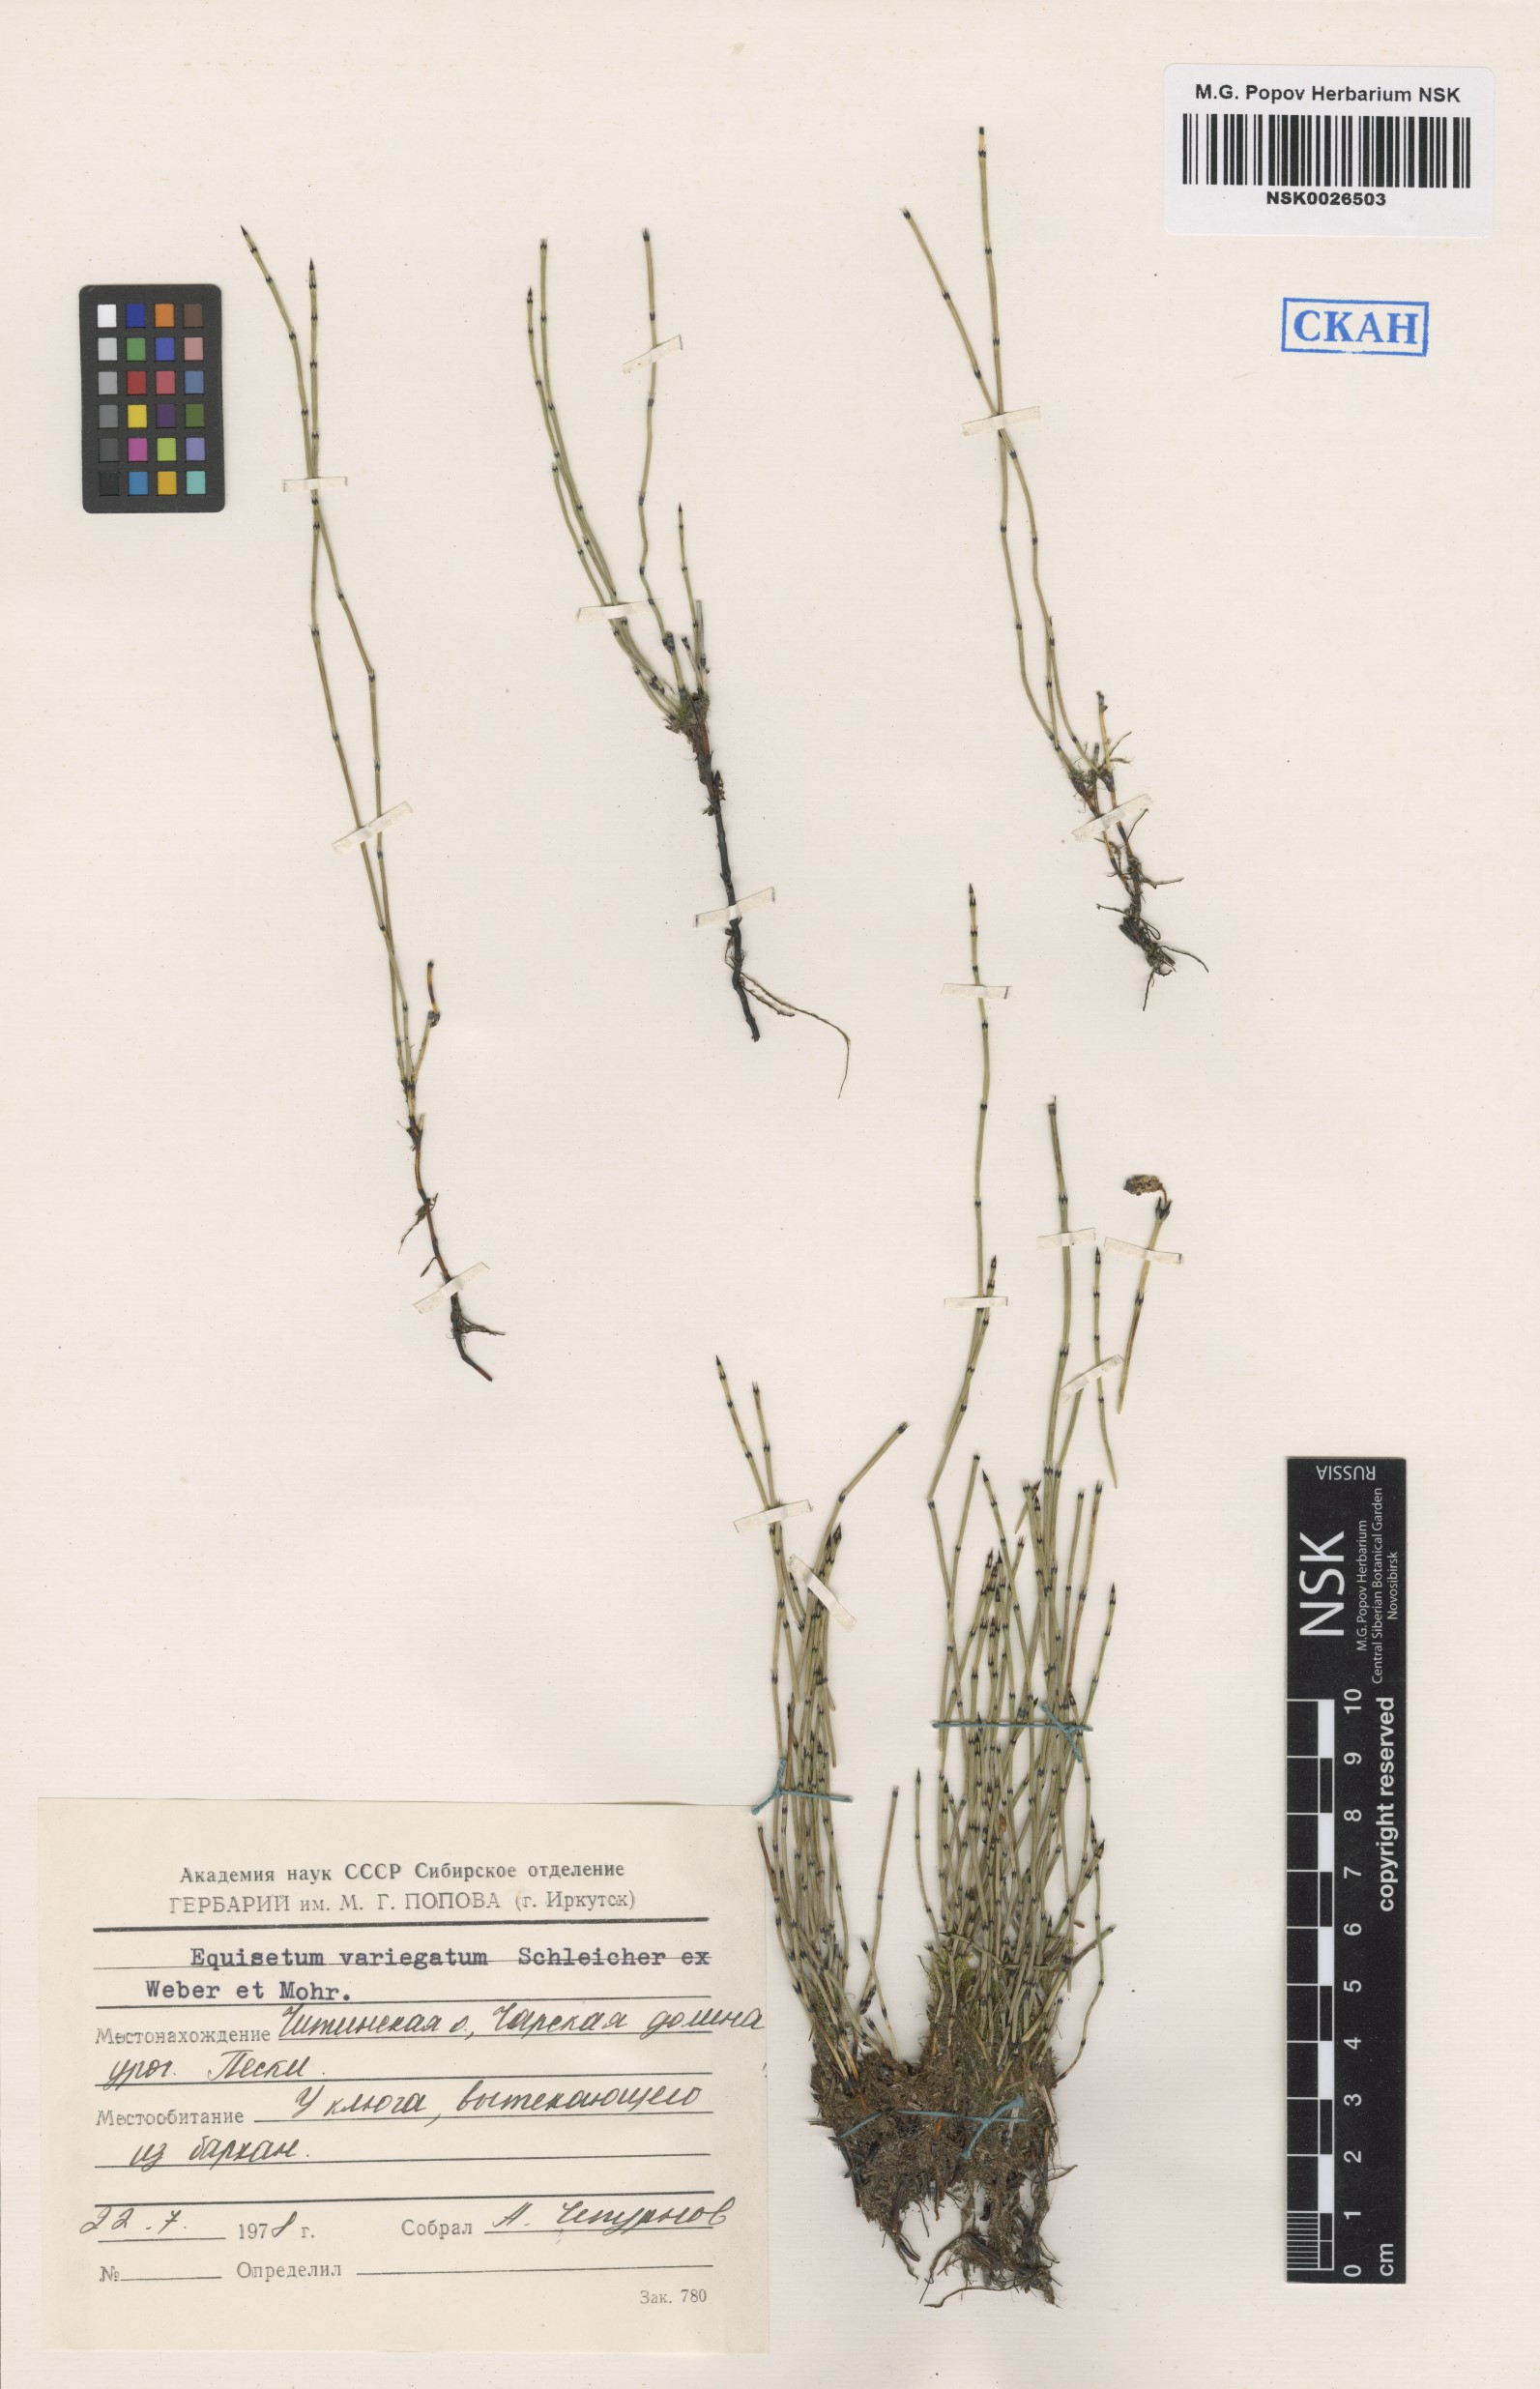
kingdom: Plantae
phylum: Tracheophyta
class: Polypodiopsida
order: Equisetales
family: Equisetaceae
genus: Equisetum
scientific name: Equisetum variegatum
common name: Variegated horsetail
